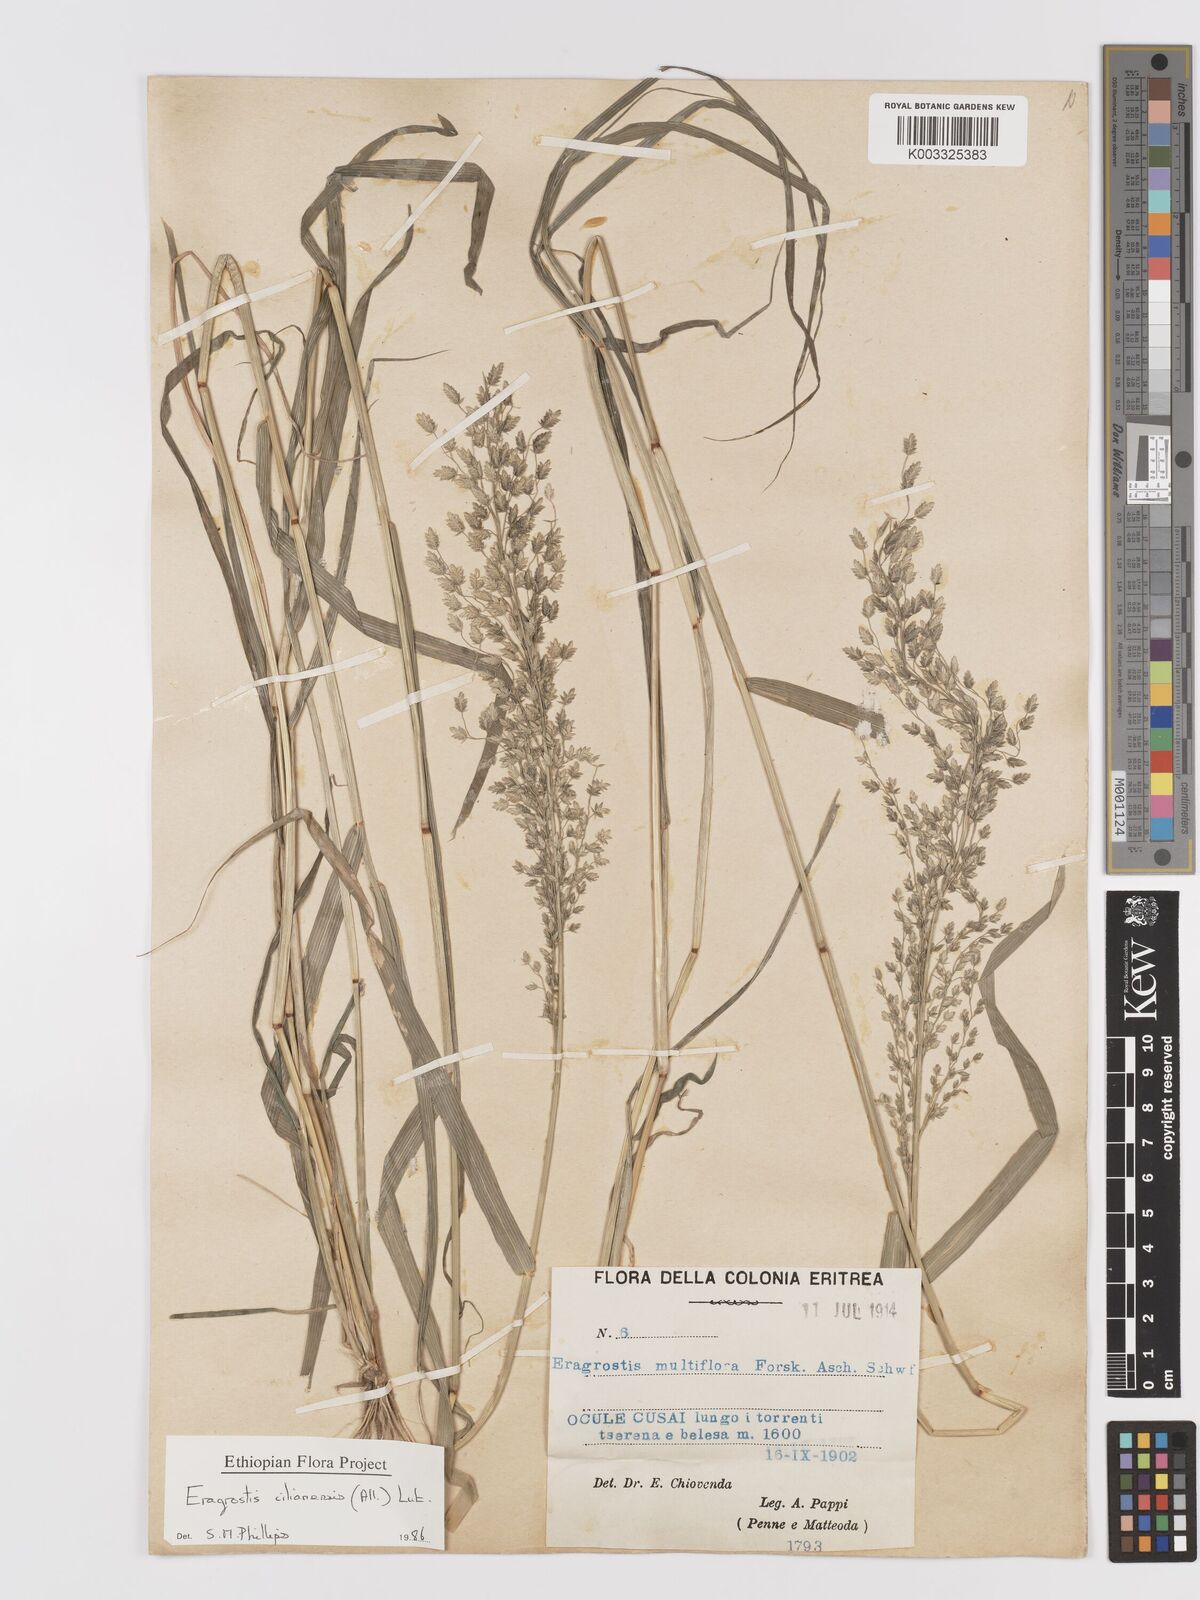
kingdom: Plantae
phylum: Tracheophyta
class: Liliopsida
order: Poales
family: Poaceae
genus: Eragrostis
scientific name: Eragrostis cilianensis
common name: Stinkgrass
